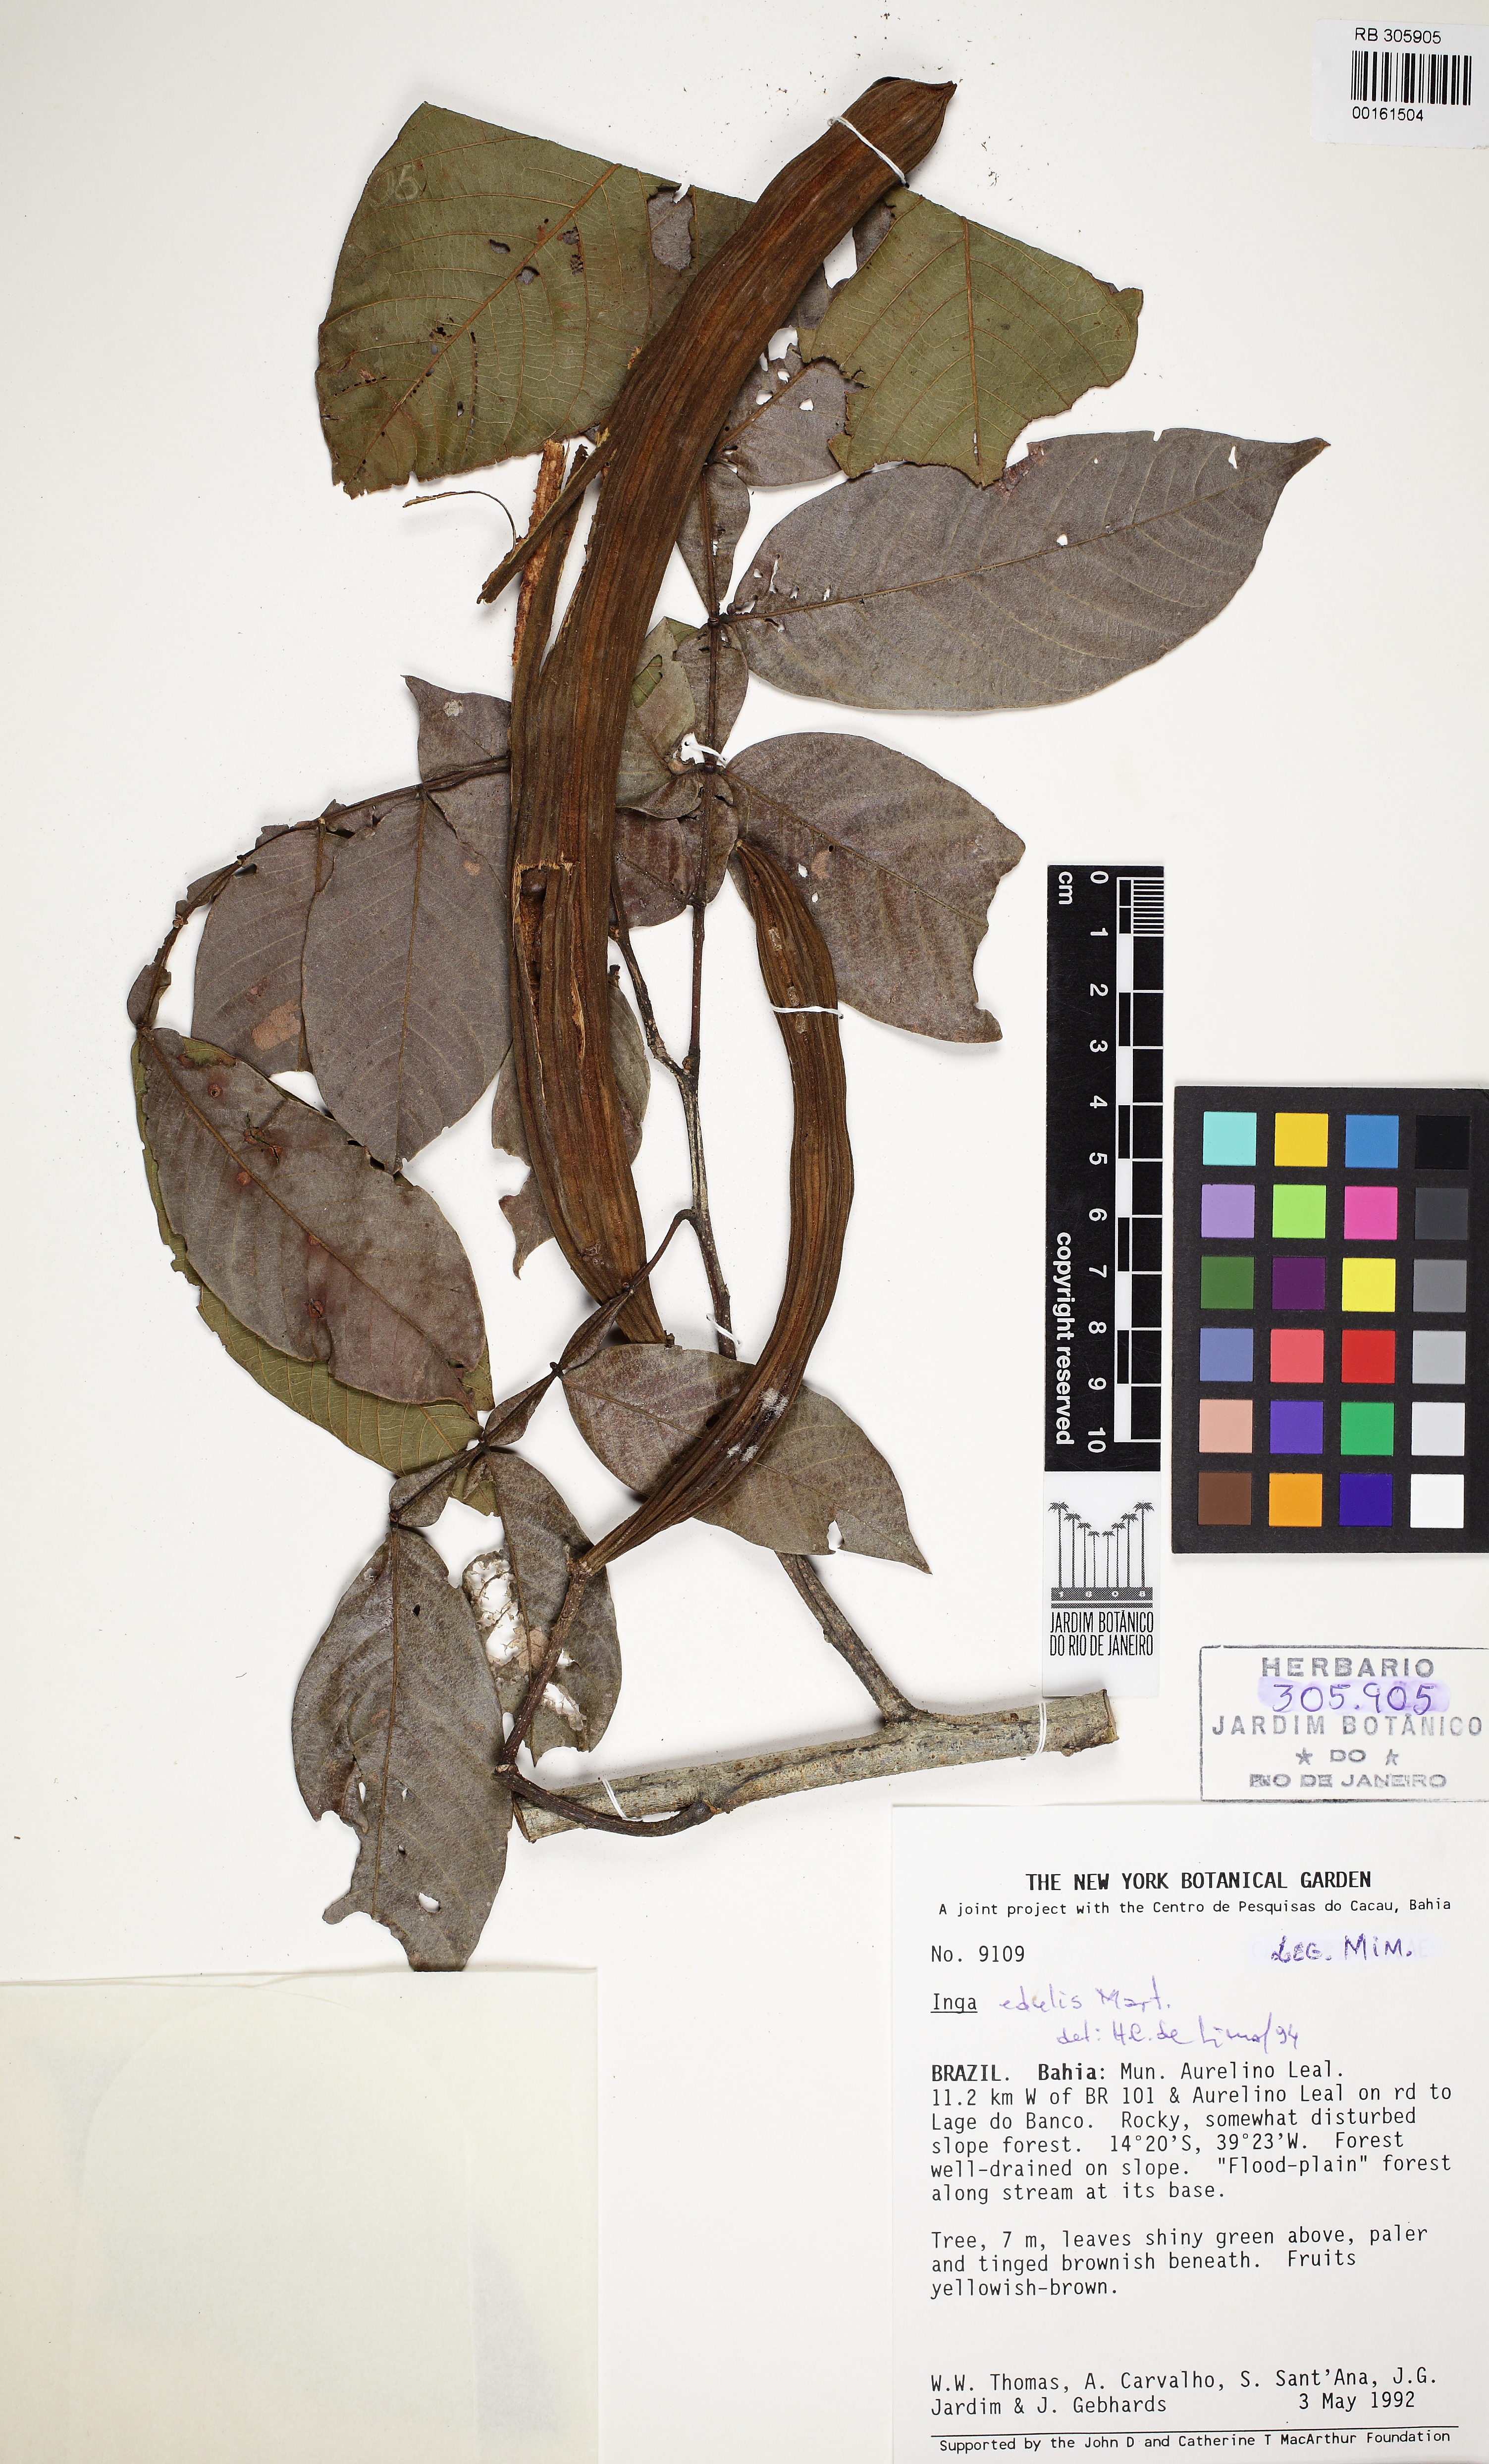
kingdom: Plantae
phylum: Tracheophyta
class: Magnoliopsida
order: Fabales
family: Fabaceae
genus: Inga
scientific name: Inga edulis
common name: Ice cream bean
